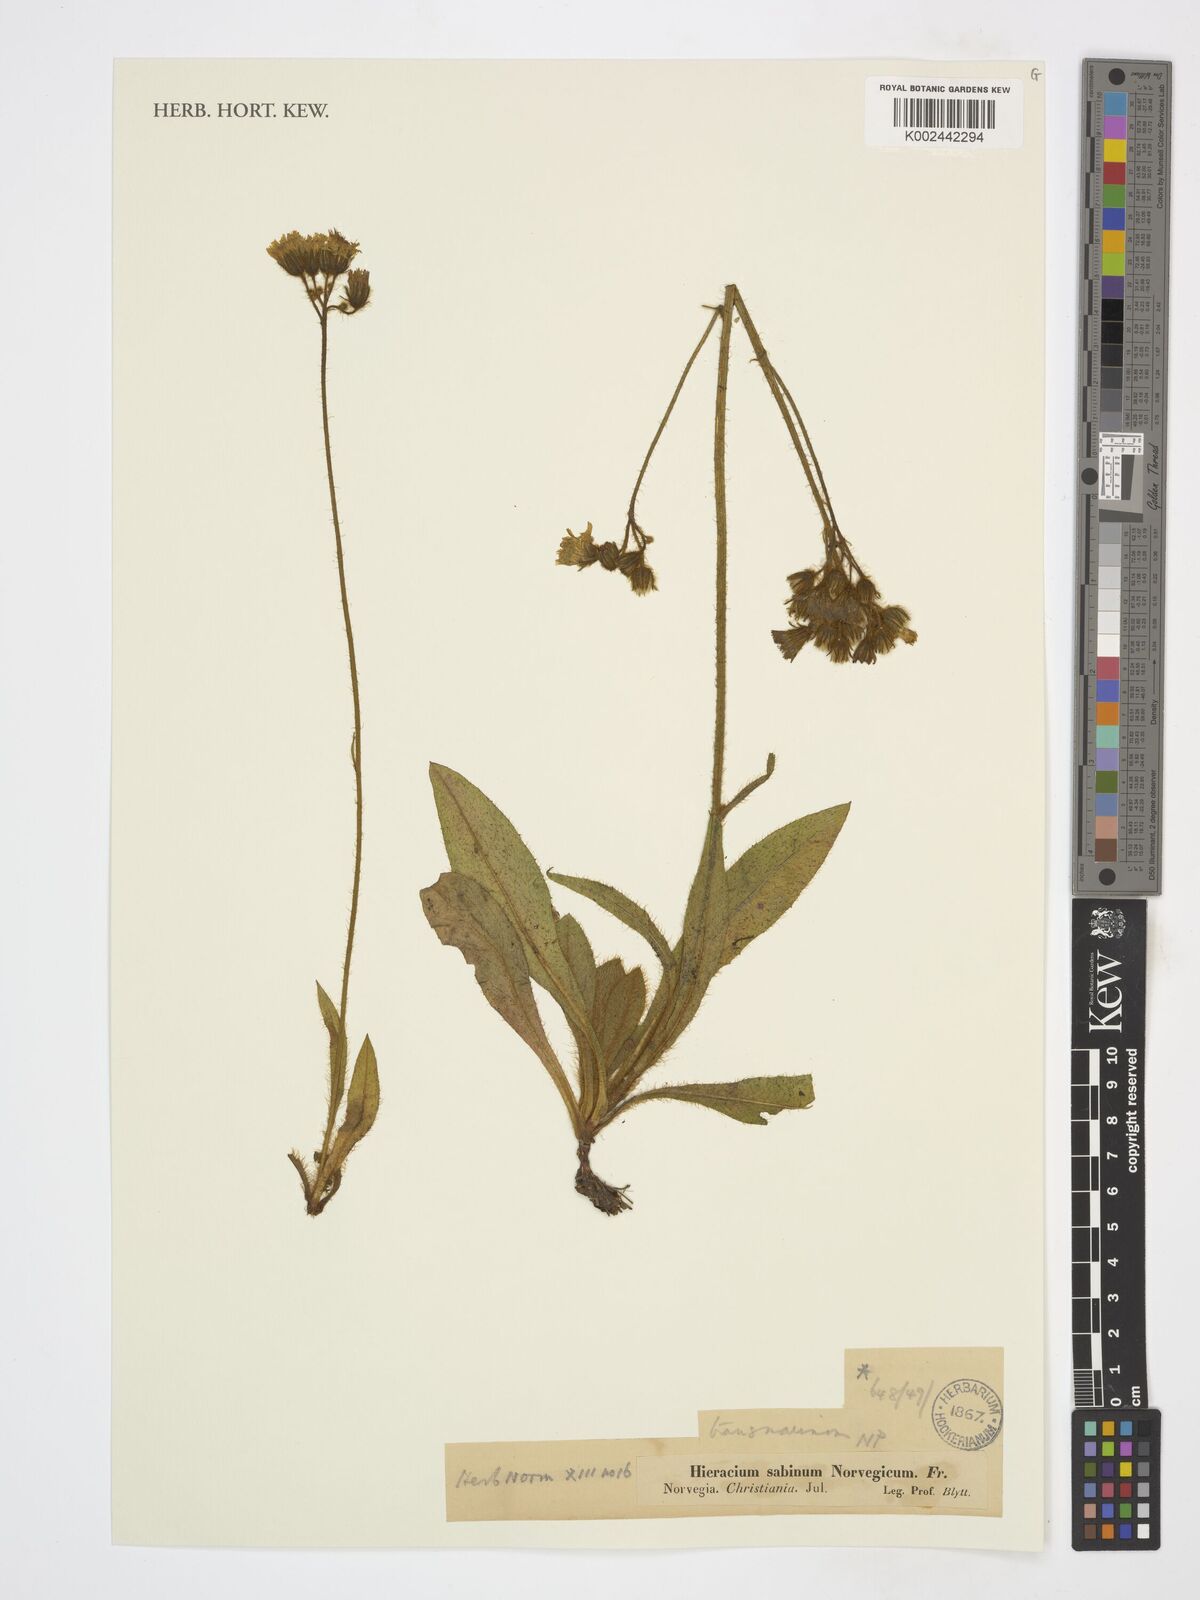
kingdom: Plantae
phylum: Tracheophyta
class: Magnoliopsida
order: Asterales
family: Asteraceae
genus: Pilosella
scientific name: Pilosella cymosa
